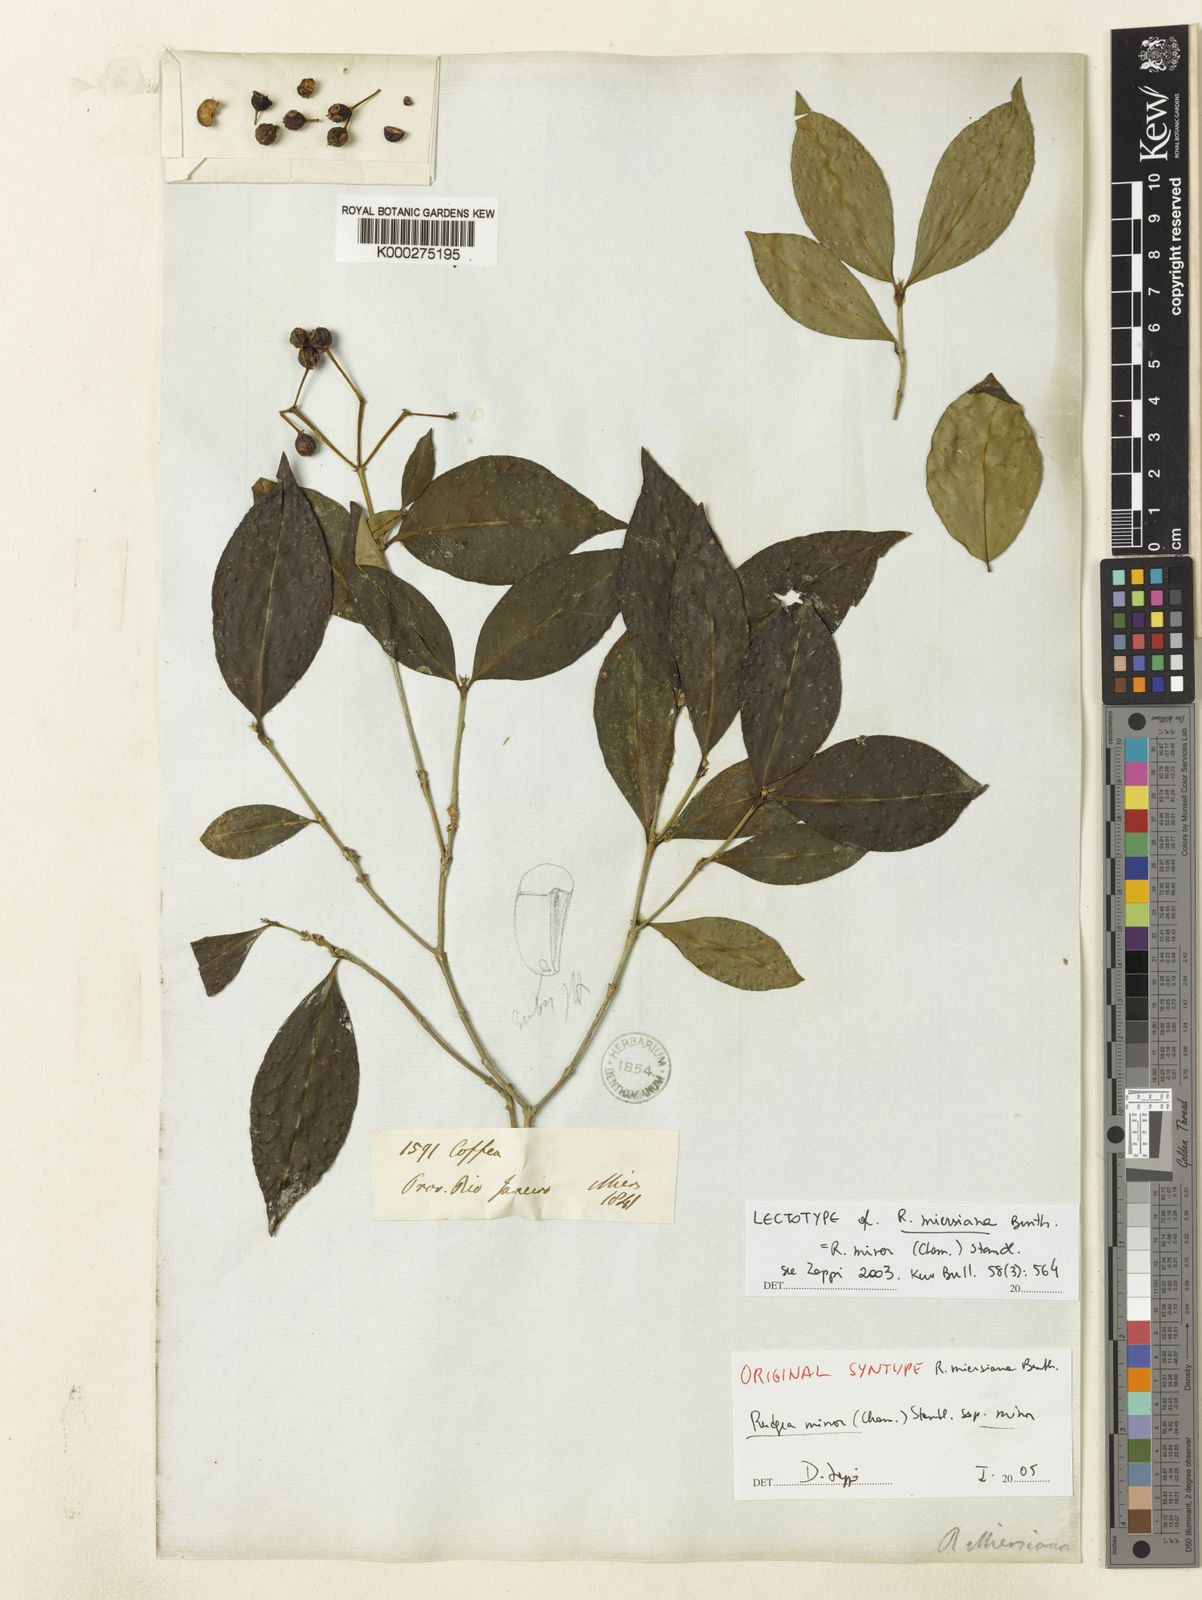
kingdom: Plantae
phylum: Tracheophyta
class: Magnoliopsida
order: Gentianales
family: Rubiaceae
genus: Rudgea
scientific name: Rudgea minor
